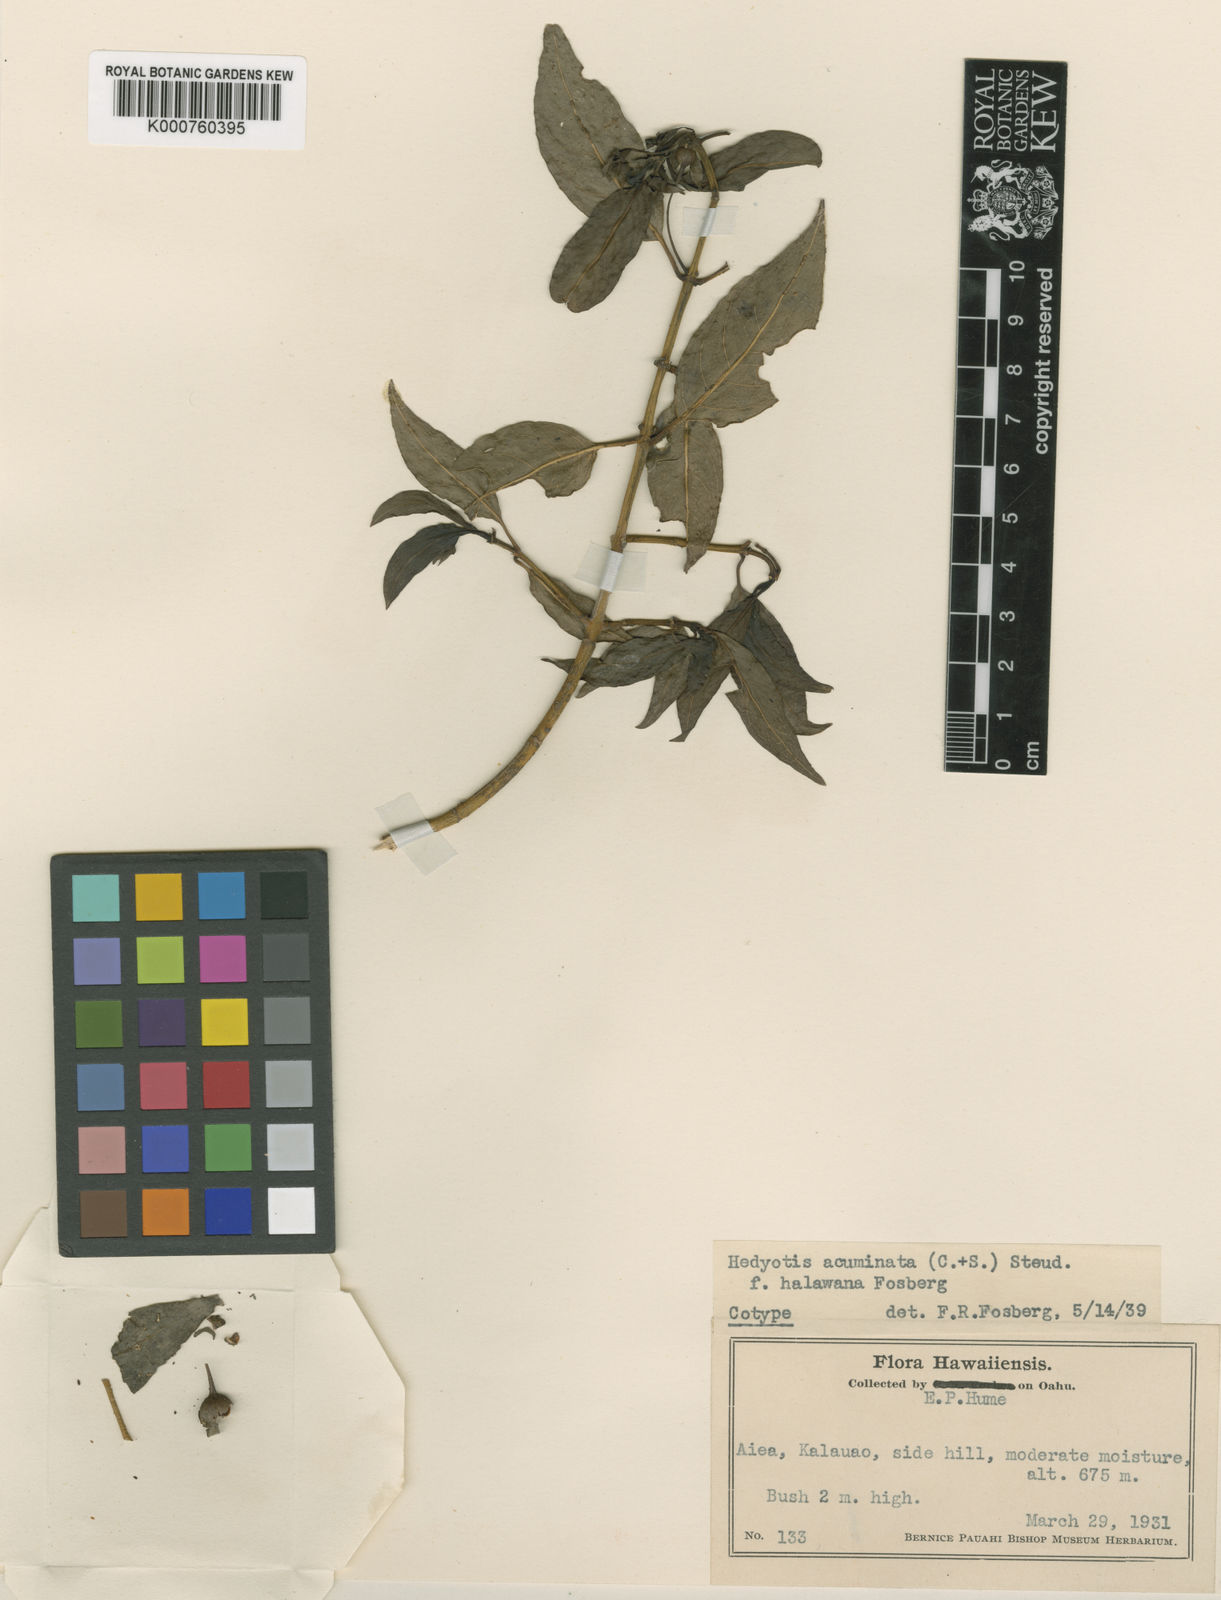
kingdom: Plantae
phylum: Tracheophyta
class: Magnoliopsida
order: Gentianales
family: Rubiaceae
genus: Kadua
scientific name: Kadua acuminata
